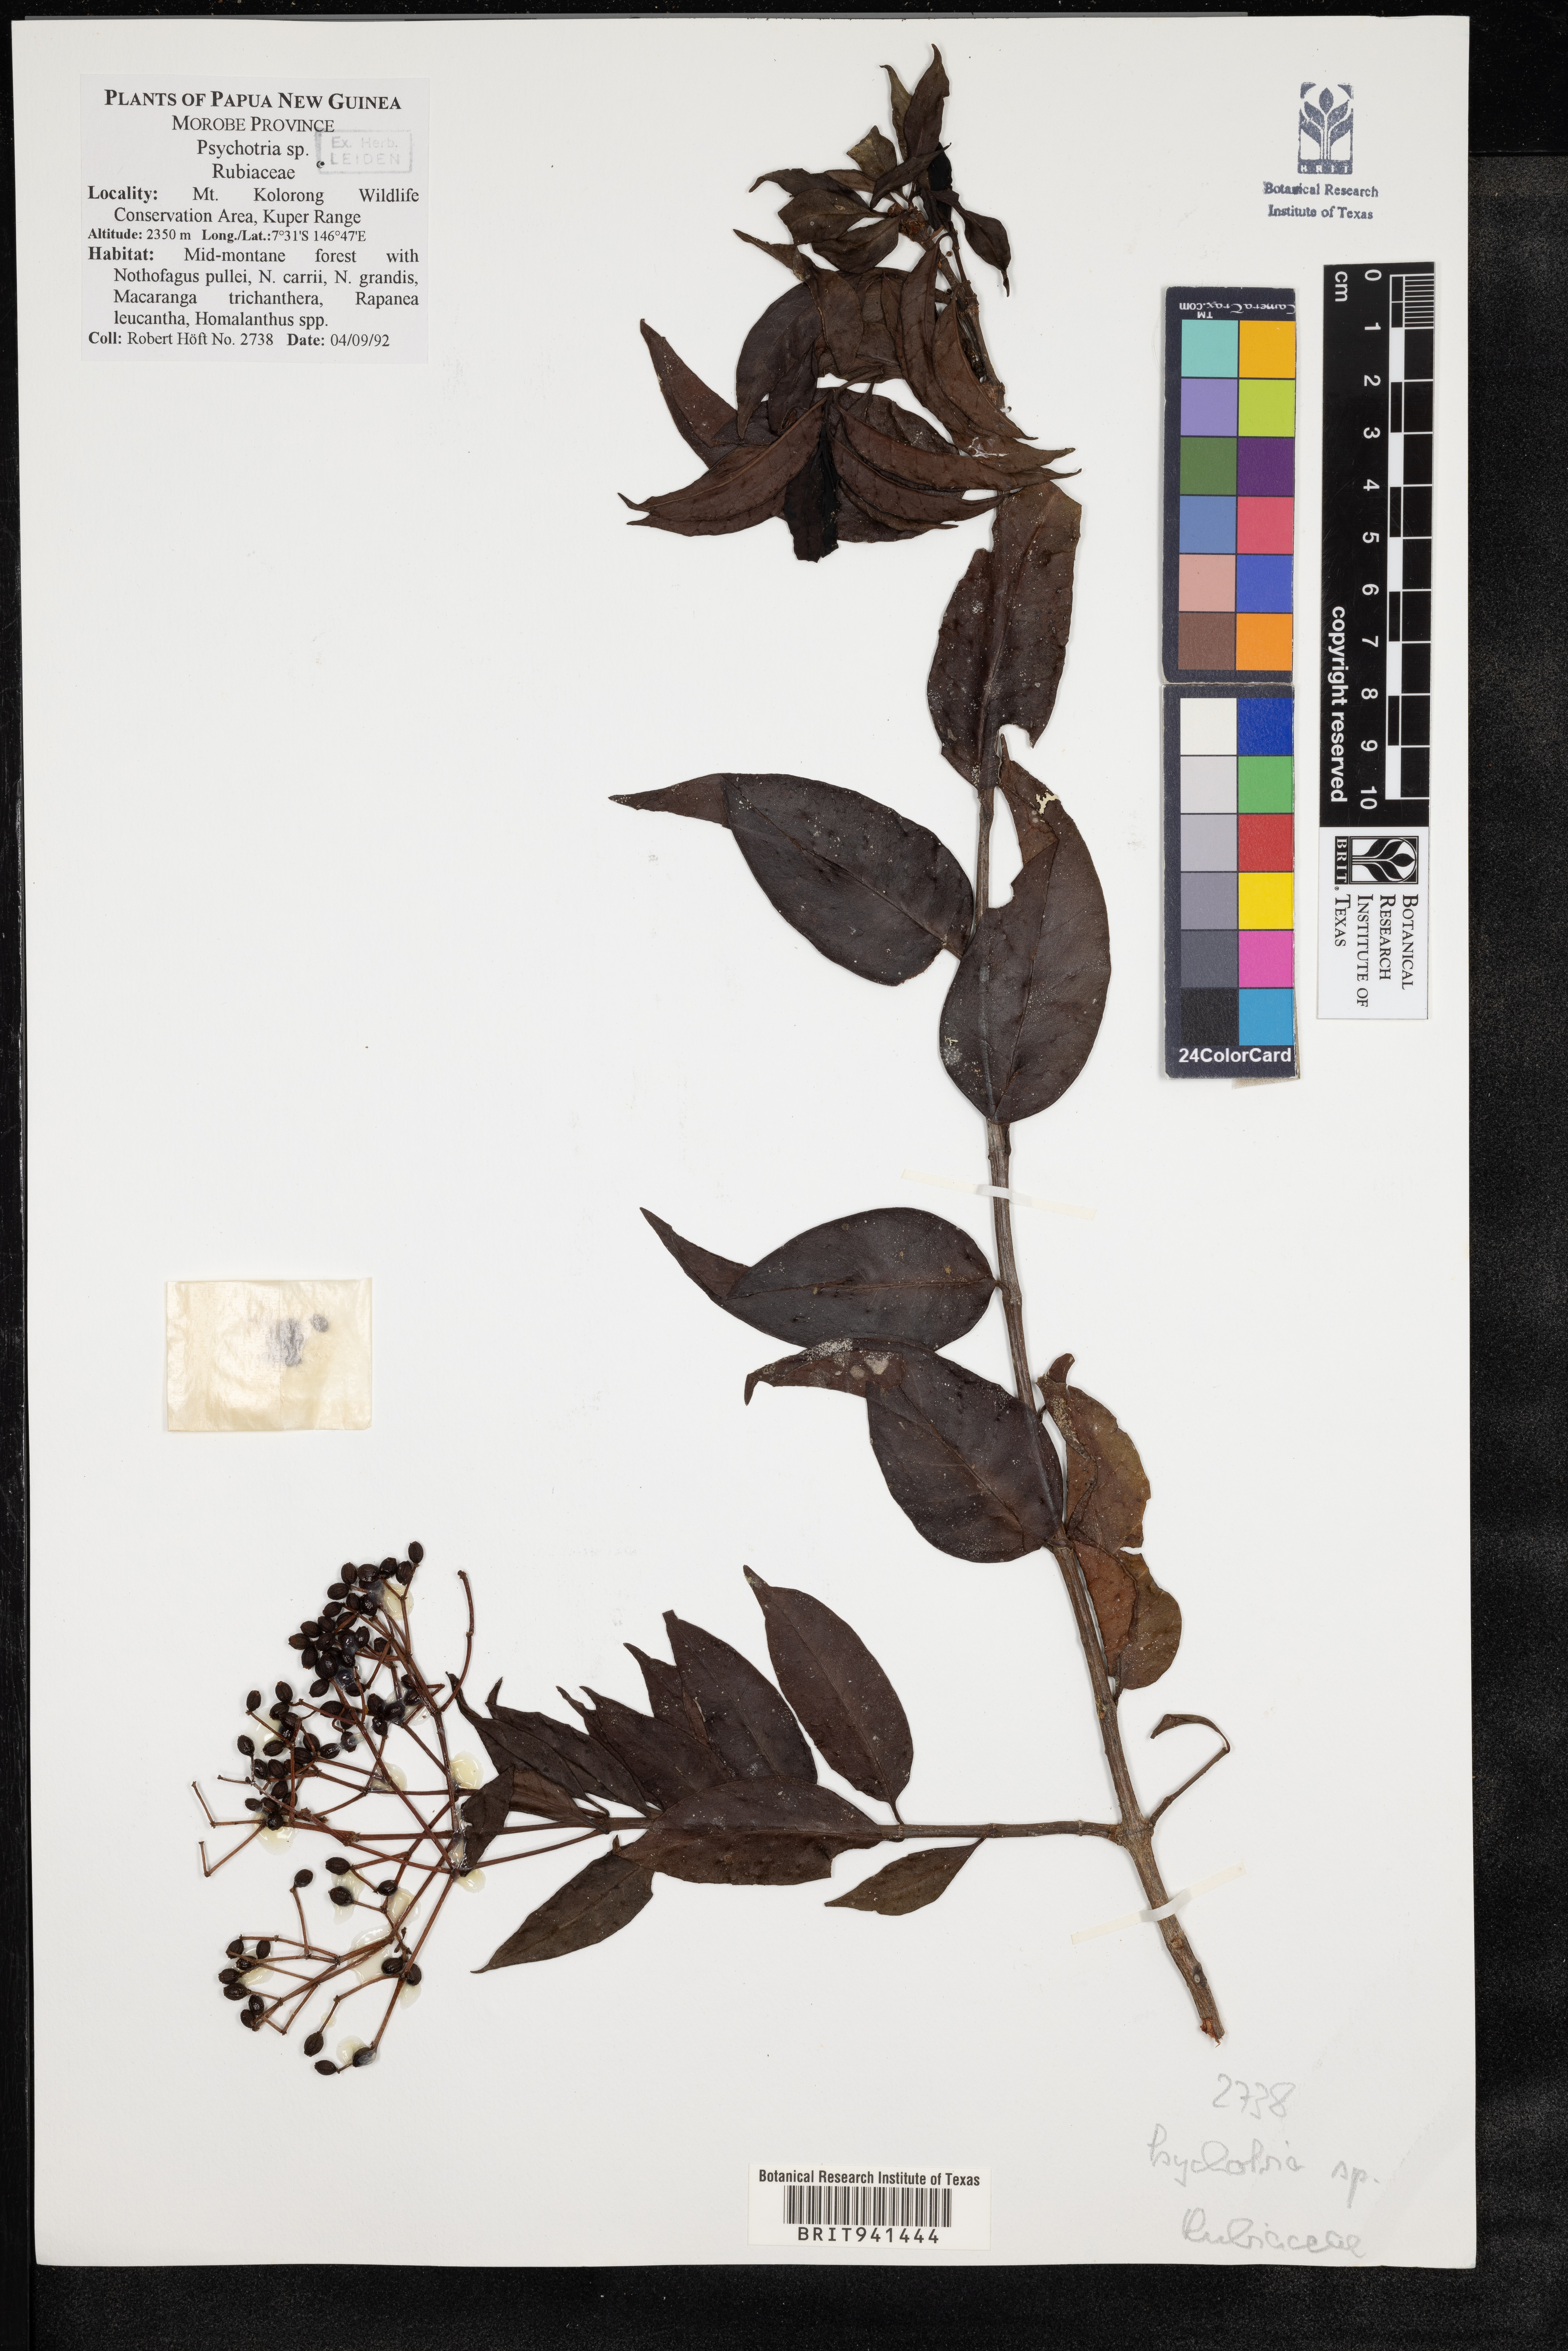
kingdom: Plantae
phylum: Tracheophyta
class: Magnoliopsida
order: Gentianales
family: Rubiaceae
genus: Psychotria
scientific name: Psychotria
